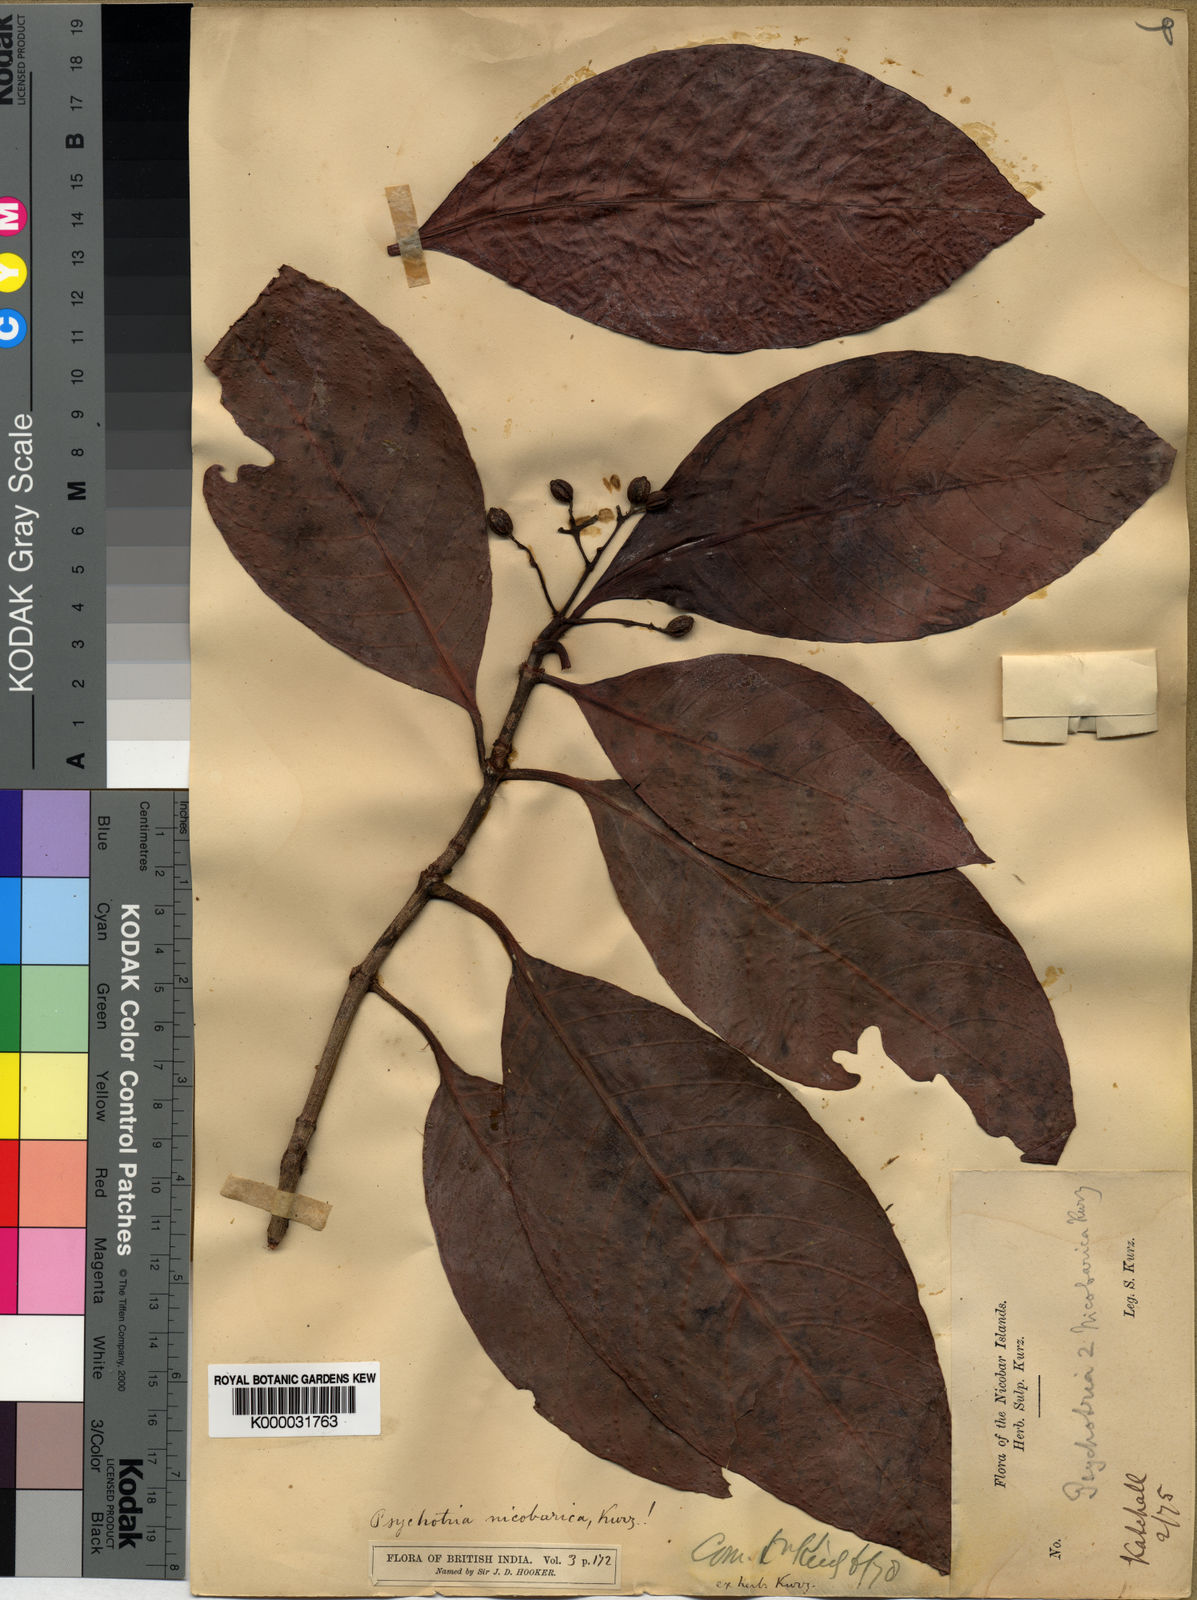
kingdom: Plantae
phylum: Tracheophyta
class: Magnoliopsida
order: Gentianales
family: Rubiaceae
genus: Psychotria
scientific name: Psychotria nicobarica
